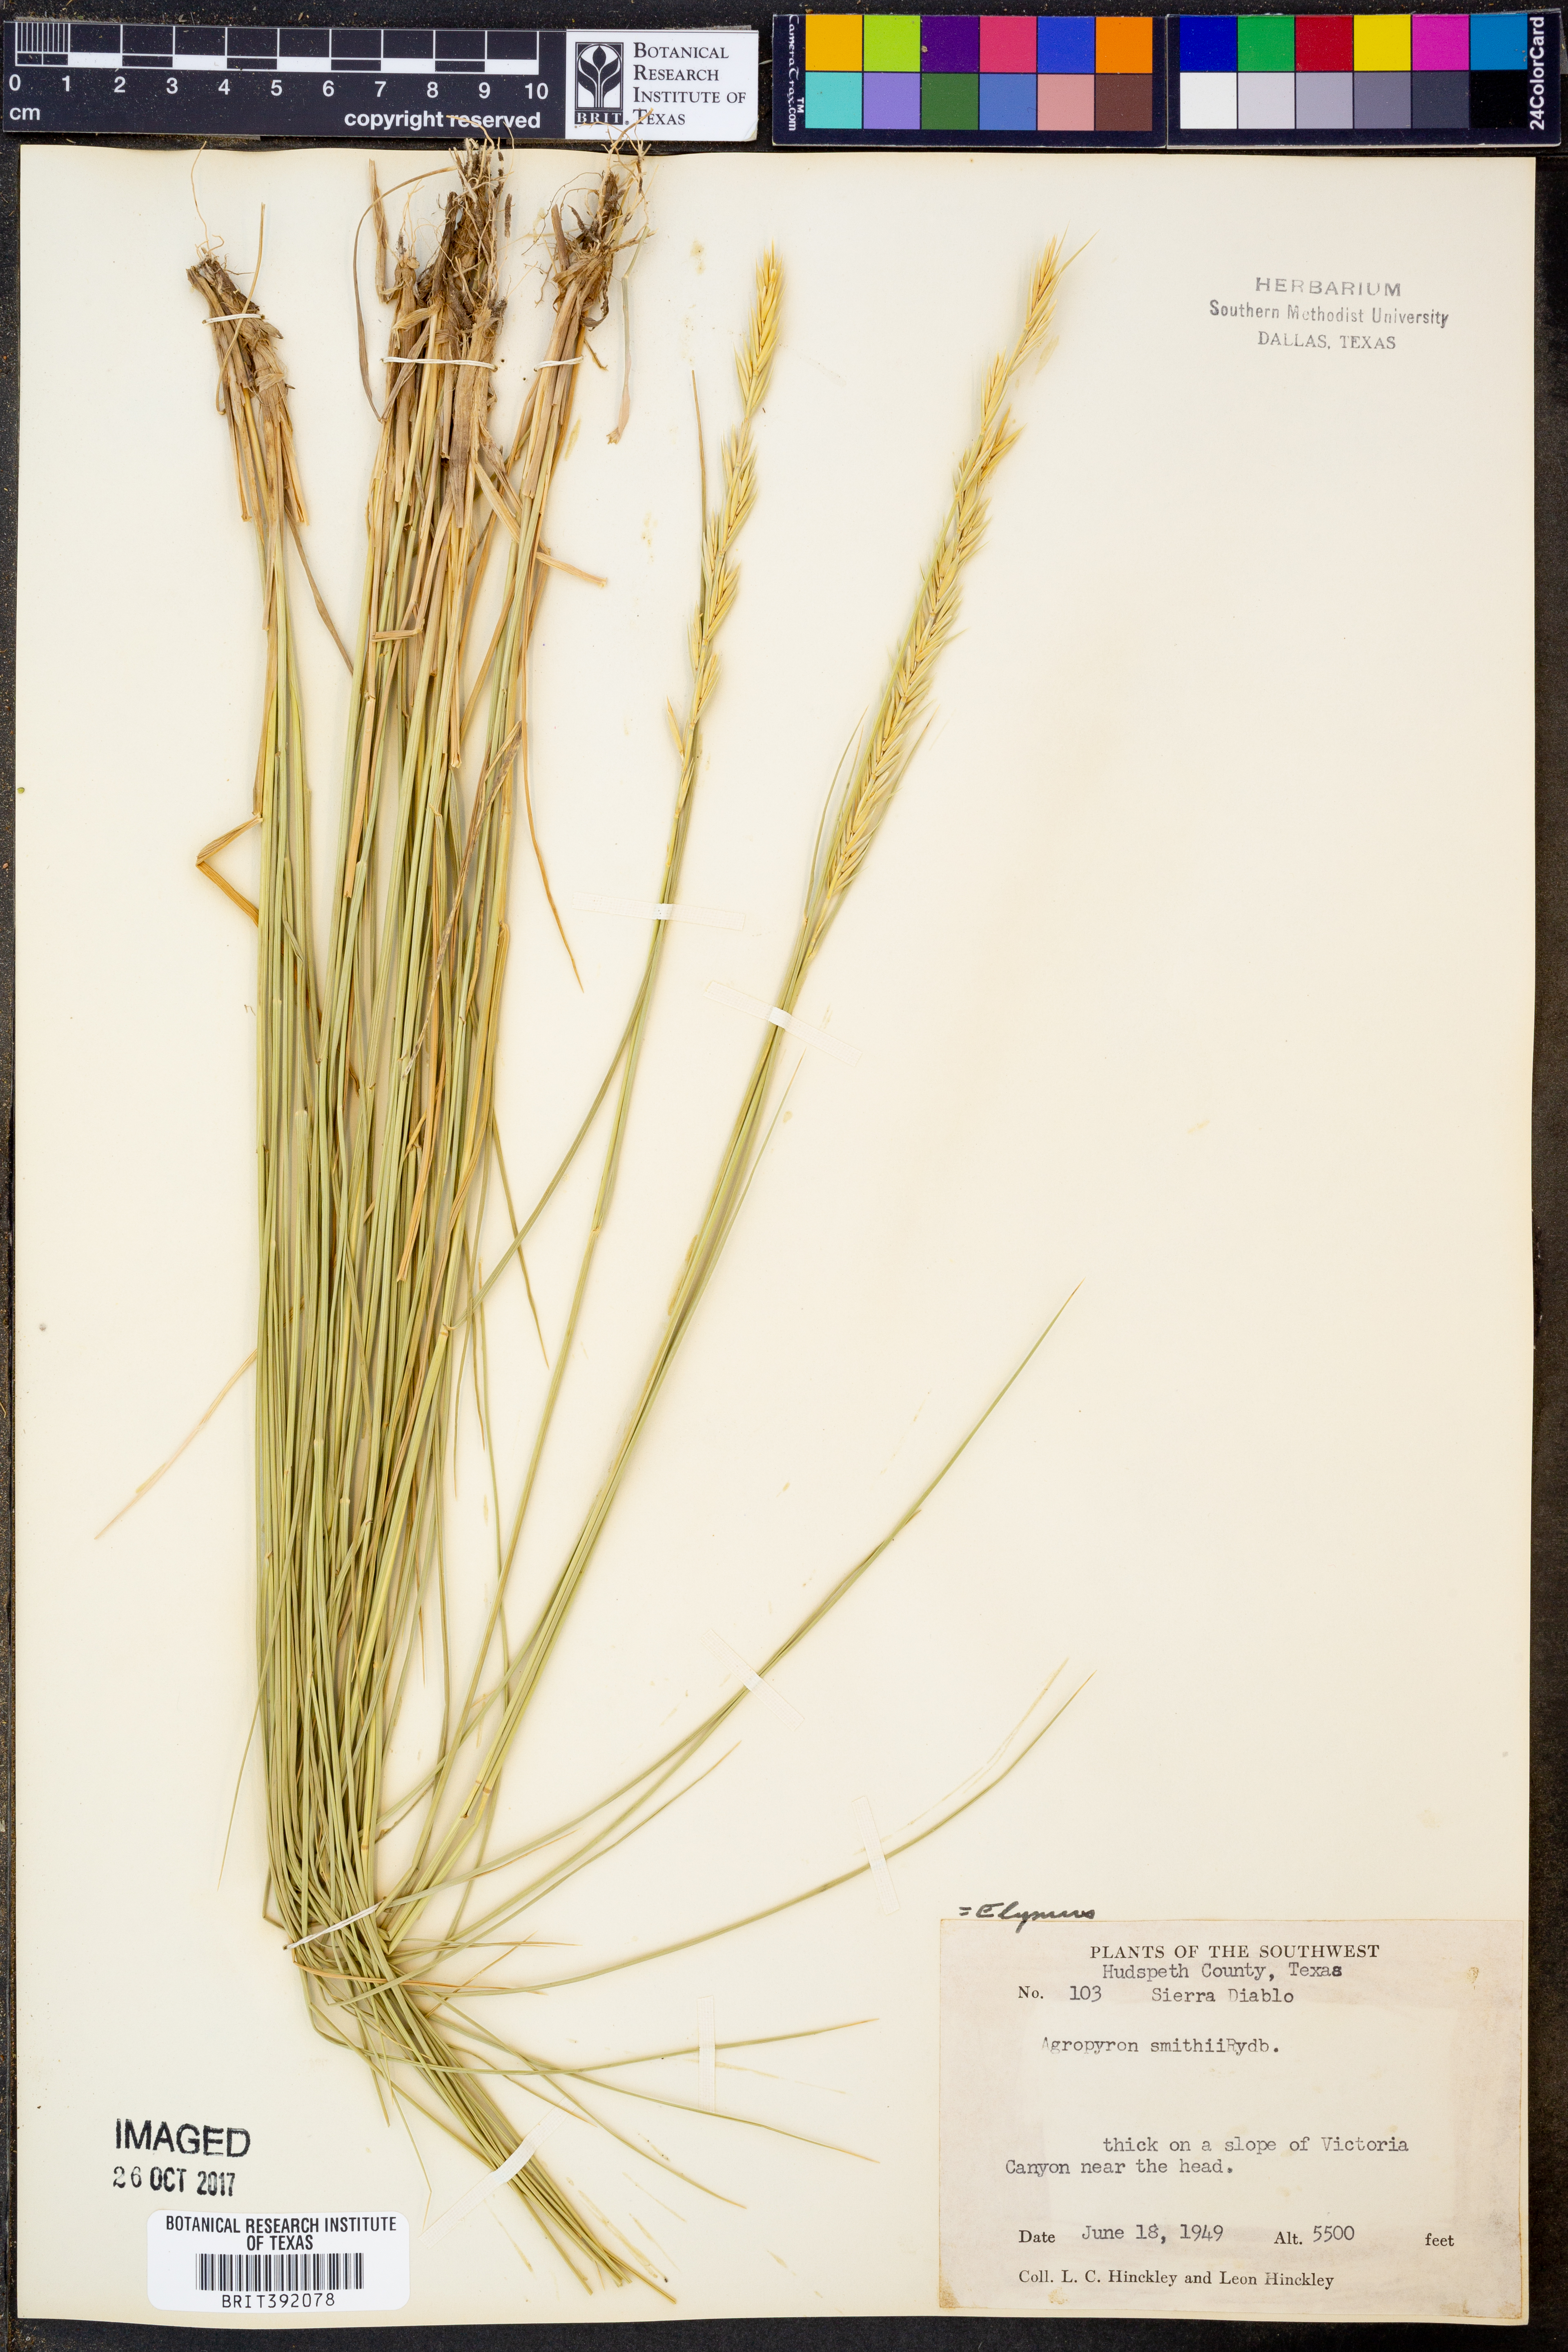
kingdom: Plantae
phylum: Tracheophyta
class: Liliopsida
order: Poales
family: Poaceae
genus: Elymus
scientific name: Elymus smithii
